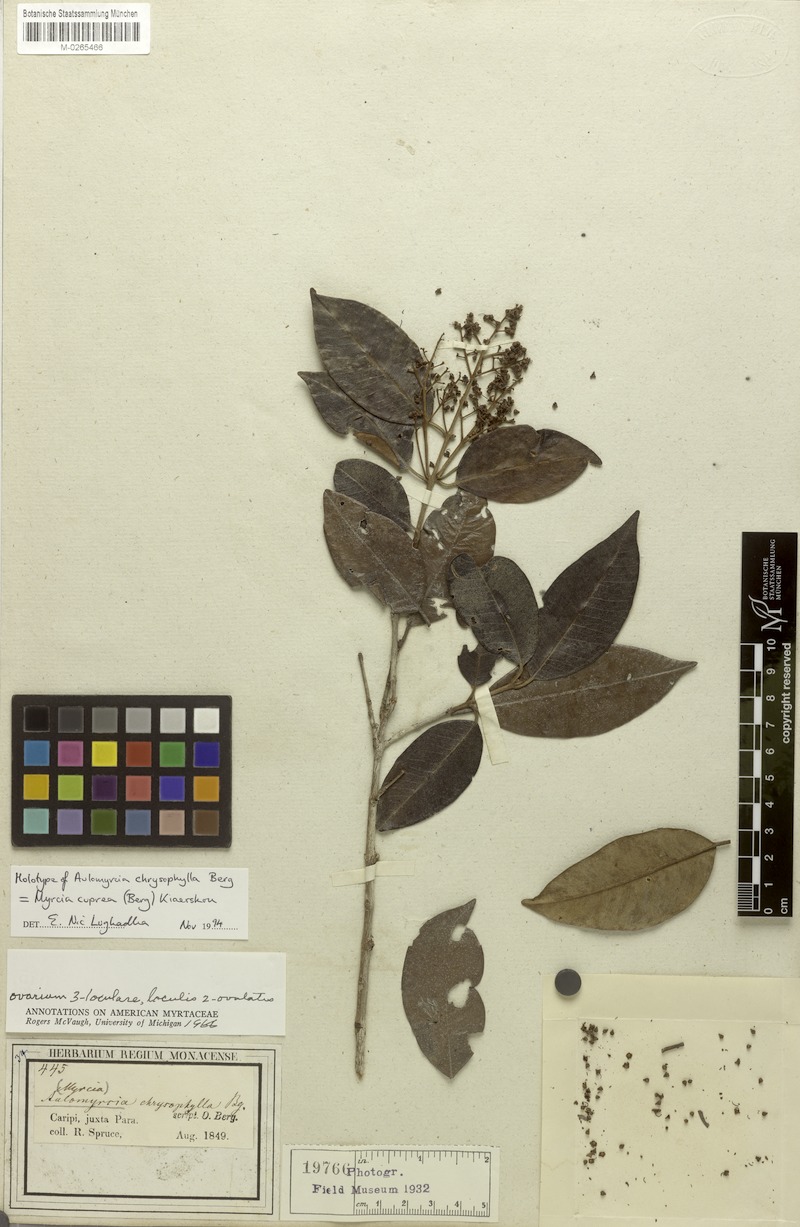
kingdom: Plantae
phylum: Tracheophyta
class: Magnoliopsida
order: Myrtales
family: Myrtaceae
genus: Myrcia
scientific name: Myrcia cuprea
